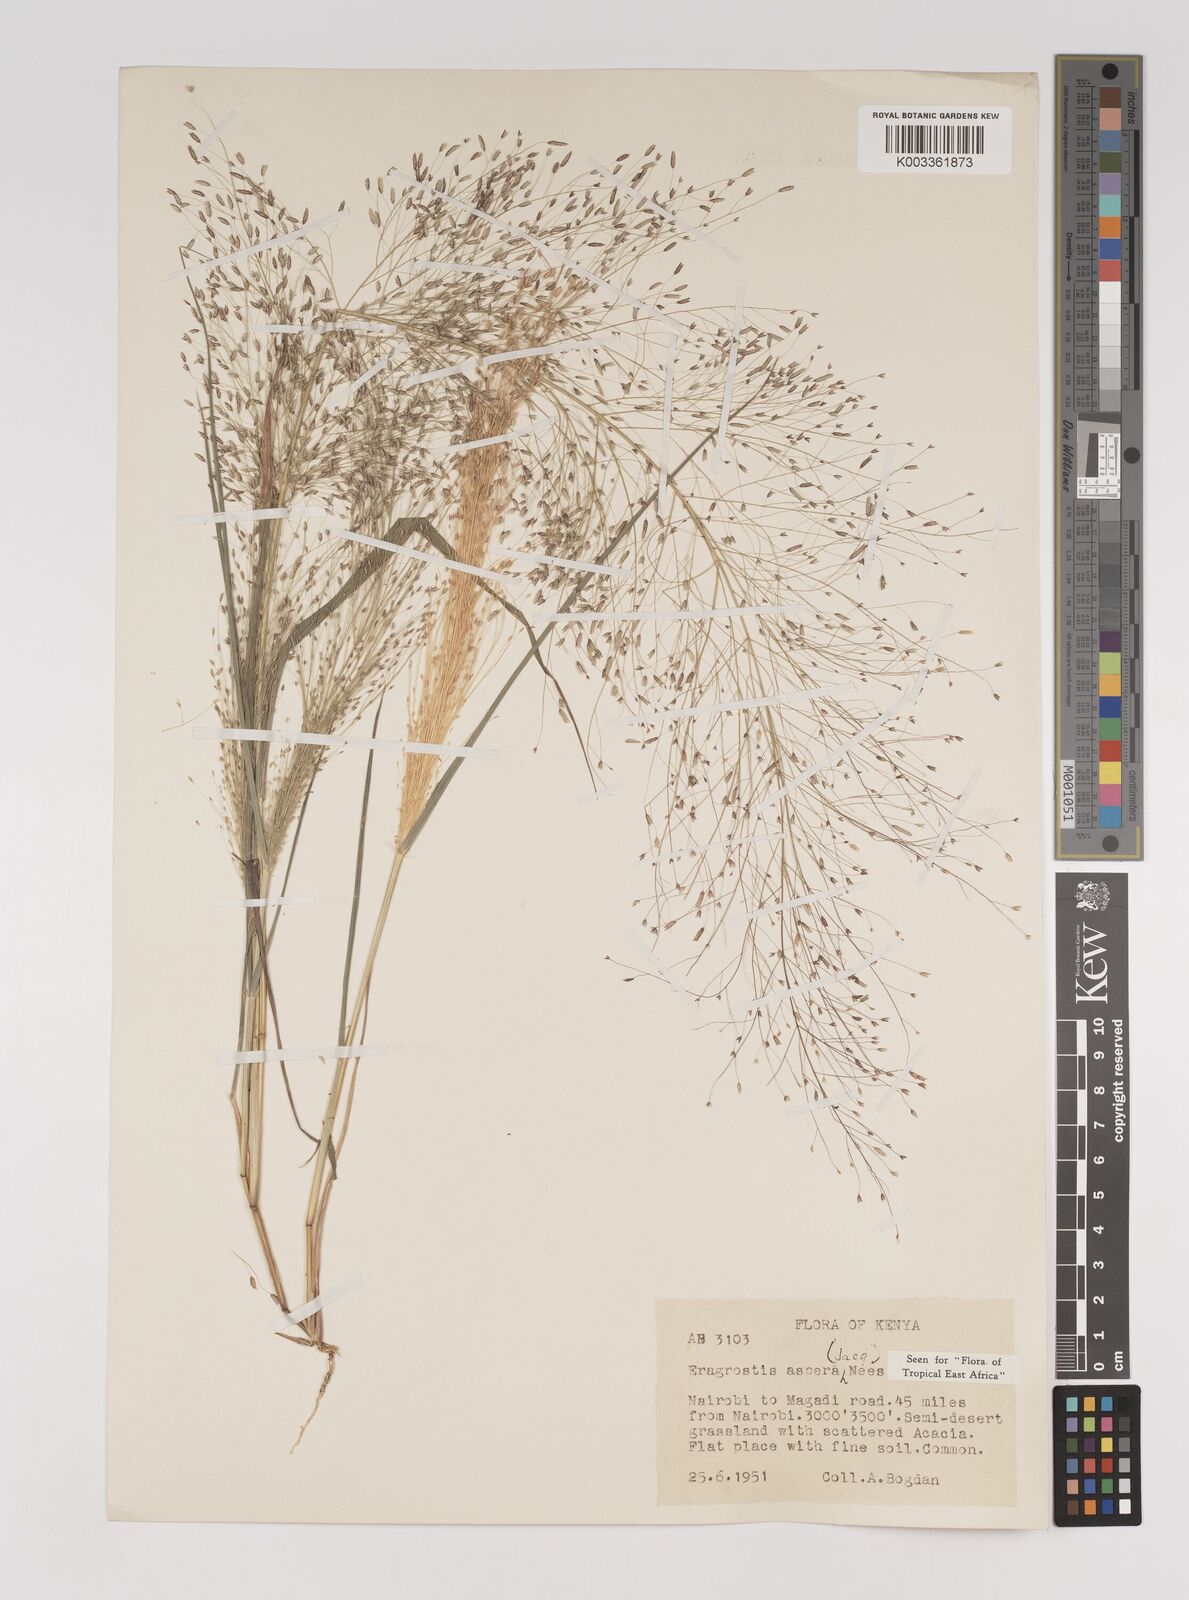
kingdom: Plantae
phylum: Tracheophyta
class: Liliopsida
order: Poales
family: Poaceae
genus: Eragrostis
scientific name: Eragrostis aspera
